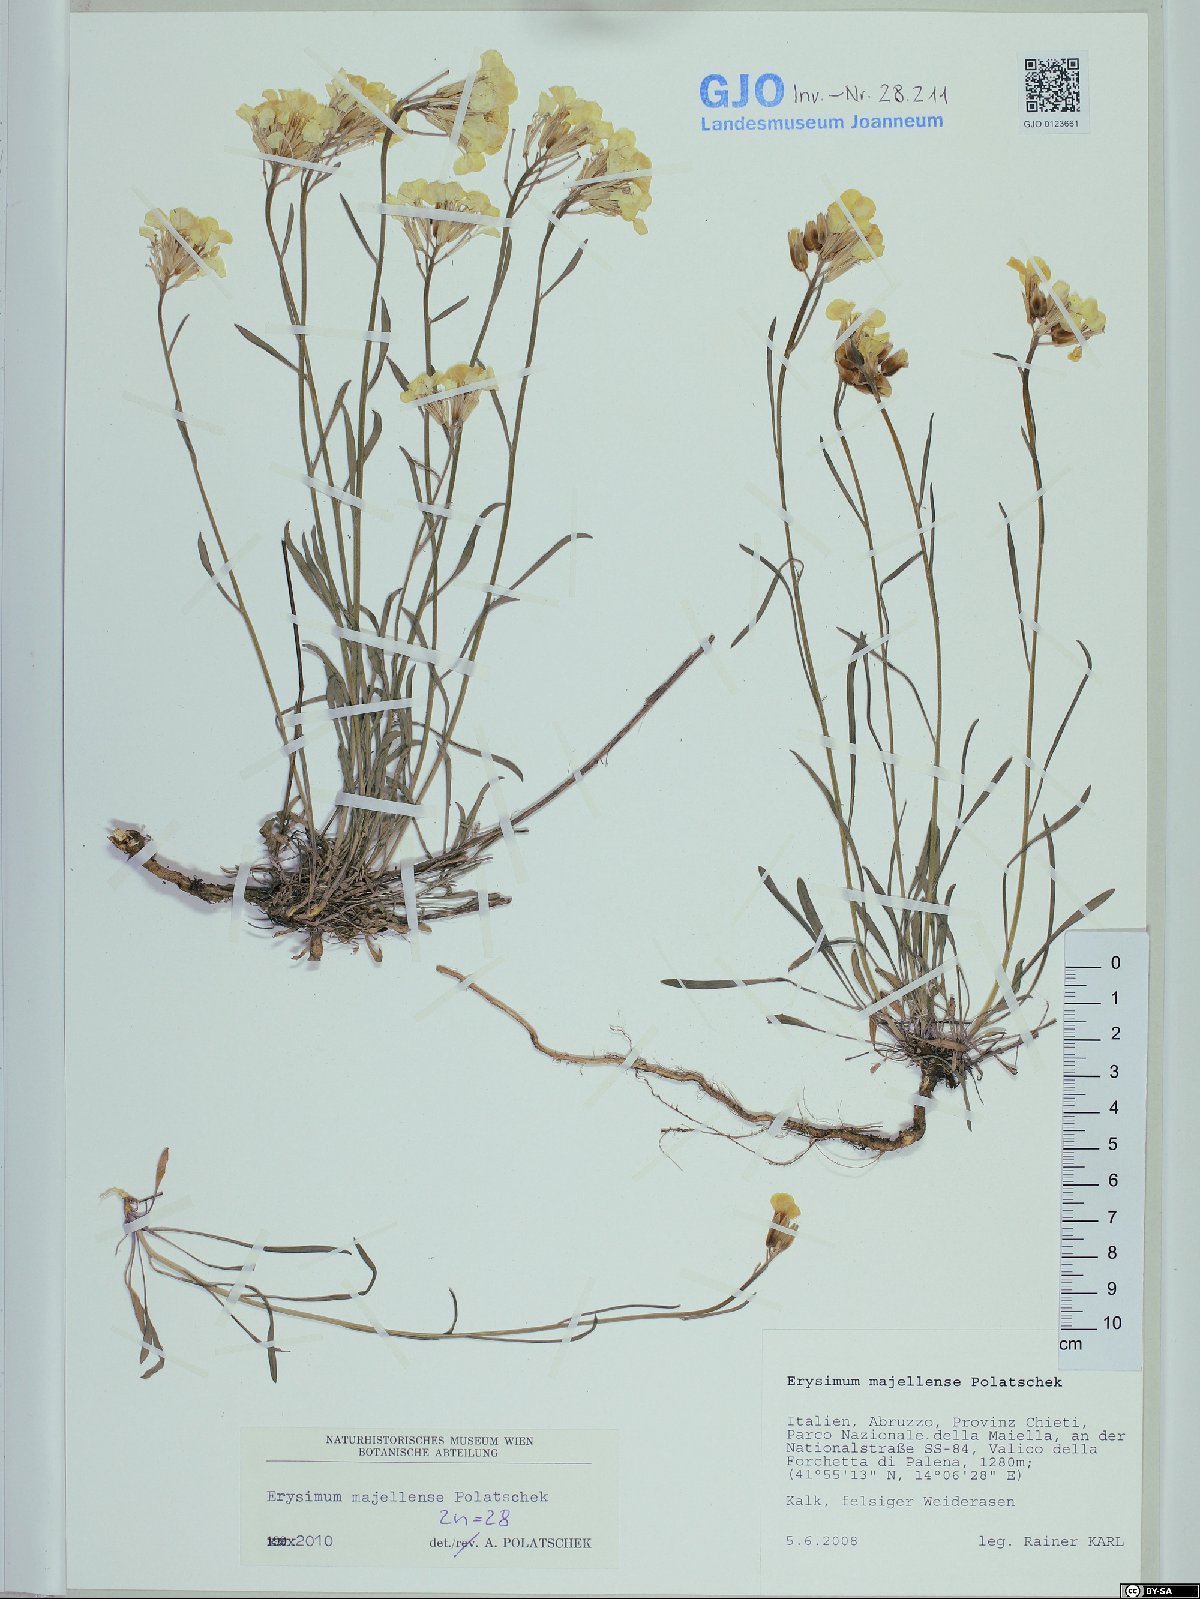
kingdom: Plantae
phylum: Tracheophyta
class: Magnoliopsida
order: Brassicales
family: Brassicaceae
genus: Erysimum
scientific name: Erysimum majellense
